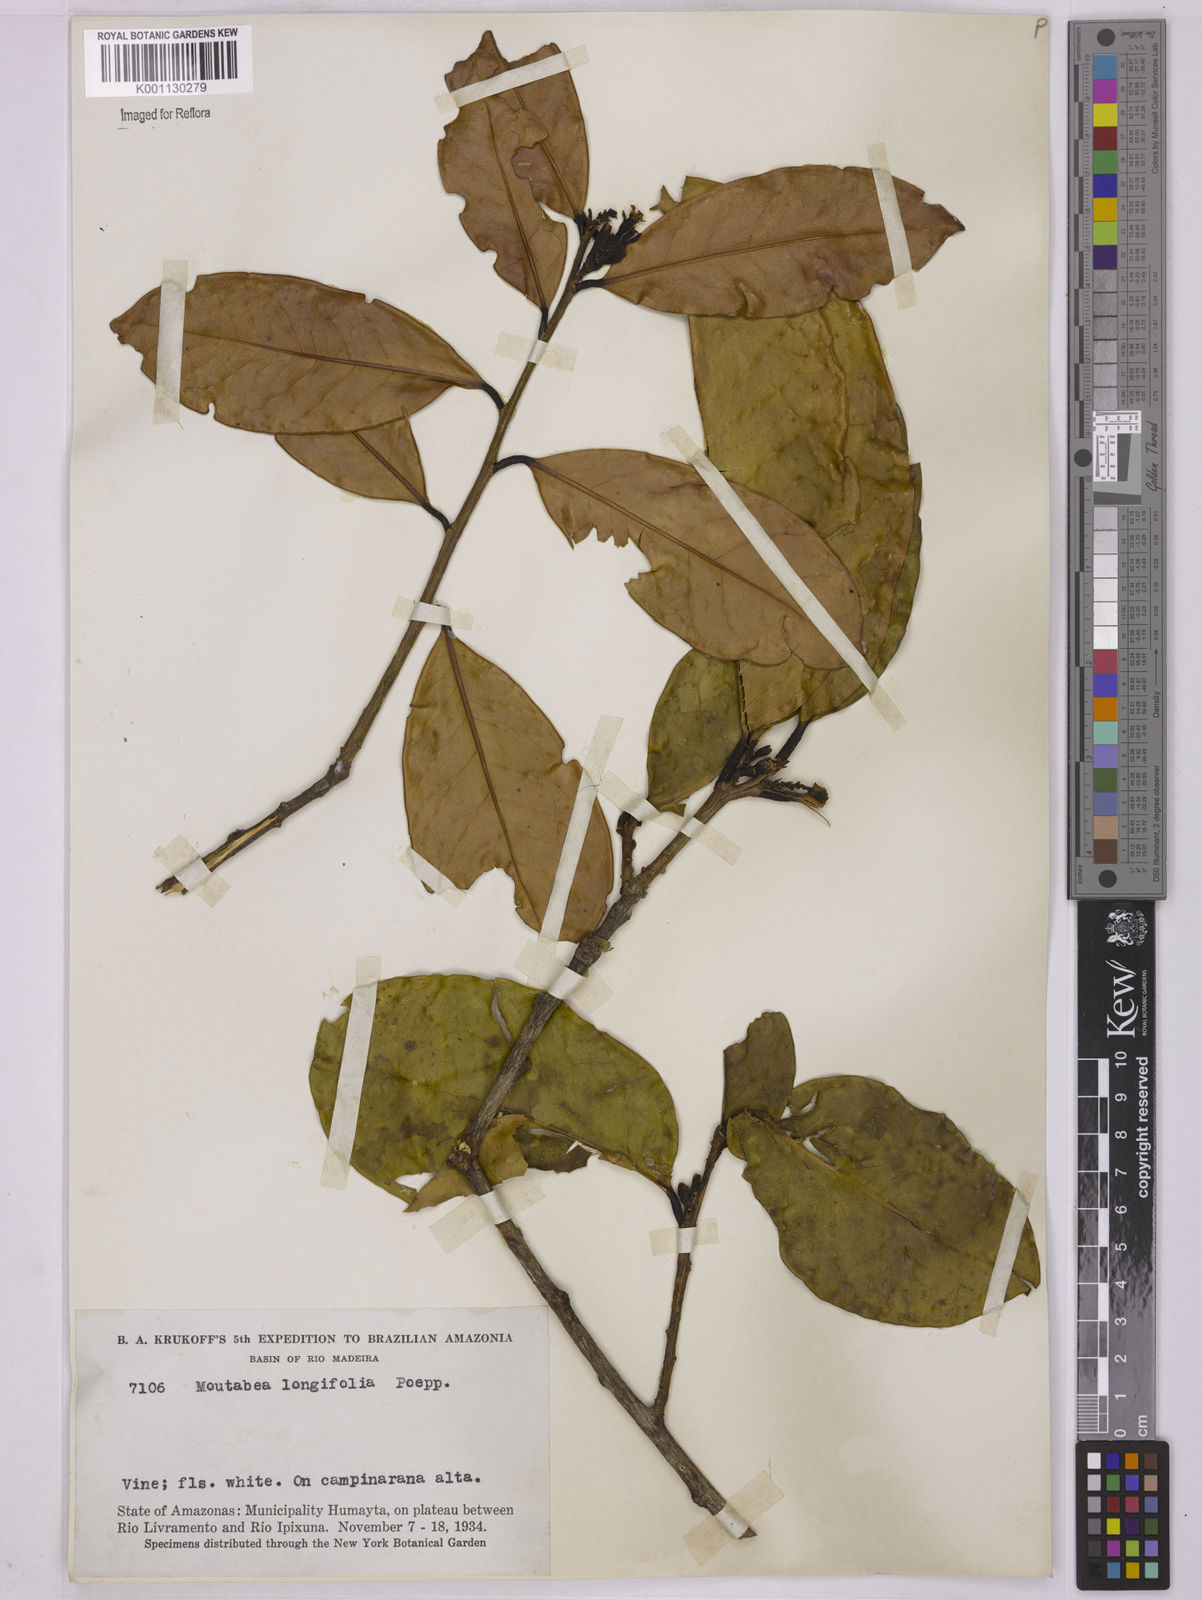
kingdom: Plantae
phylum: Tracheophyta
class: Magnoliopsida
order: Fabales
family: Polygalaceae
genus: Moutabea
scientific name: Moutabea aculeata
